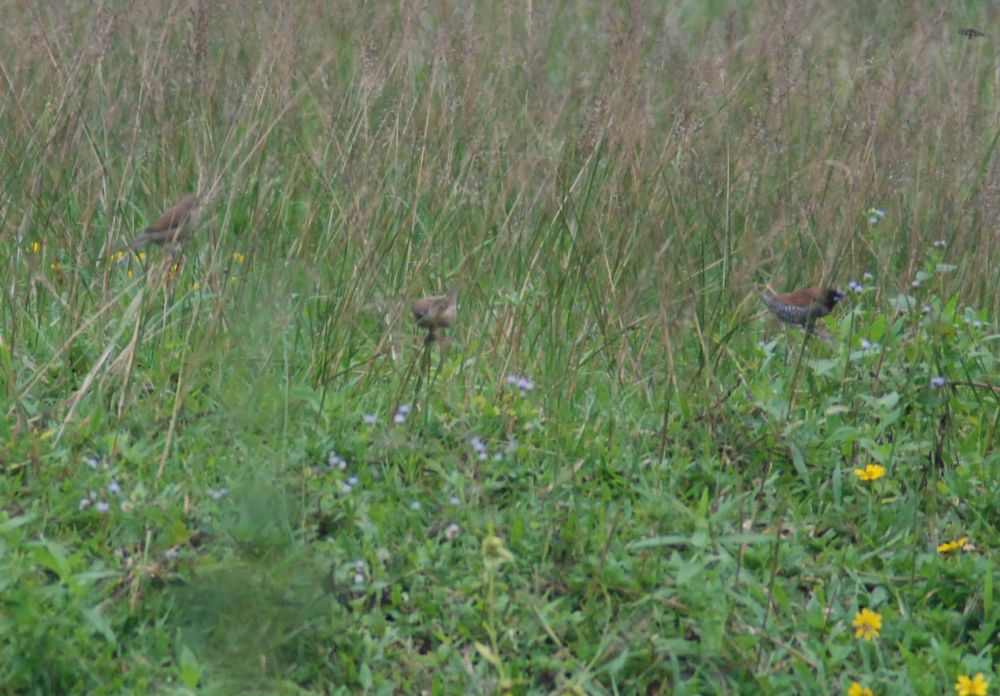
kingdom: Animalia
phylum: Chordata
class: Aves
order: Passeriformes
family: Estrildidae
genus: Lonchura
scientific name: Lonchura punctulata
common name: Scaly-breasted munia
